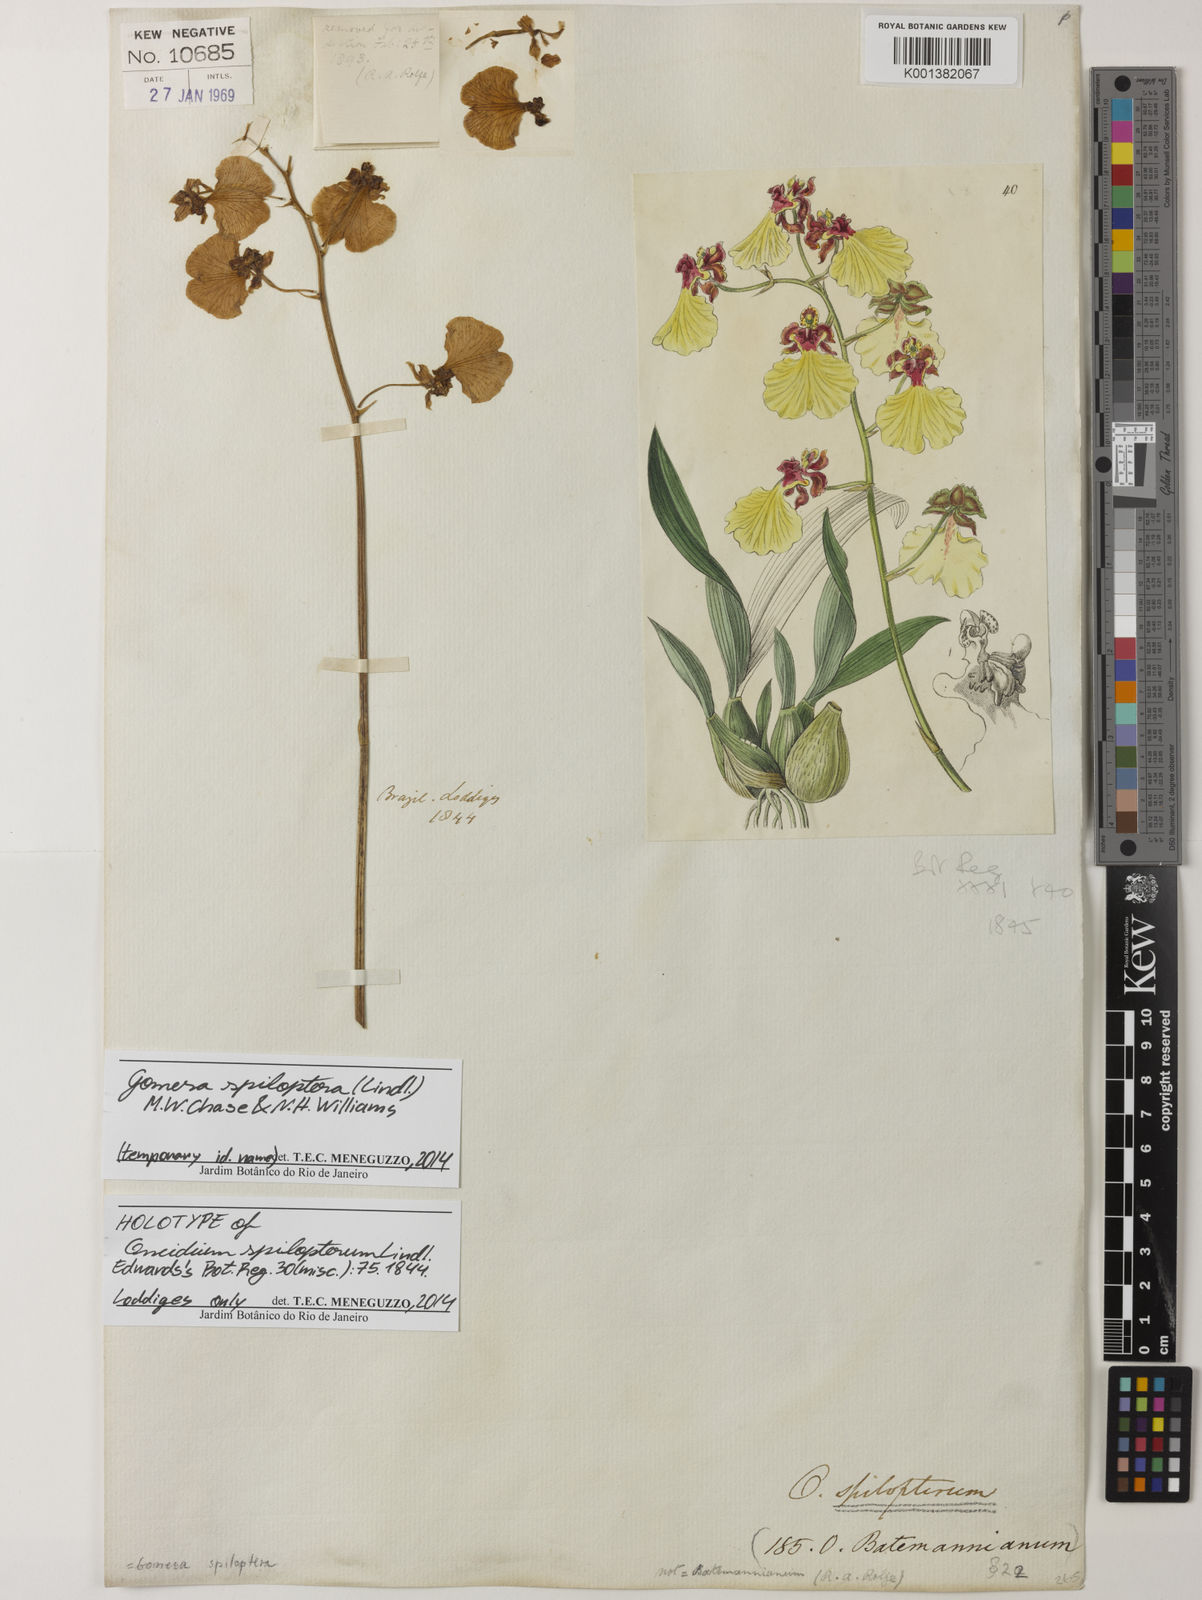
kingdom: Plantae
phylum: Tracheophyta
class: Liliopsida
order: Asparagales
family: Orchidaceae
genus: Gomesa
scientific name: Gomesa maculosa
